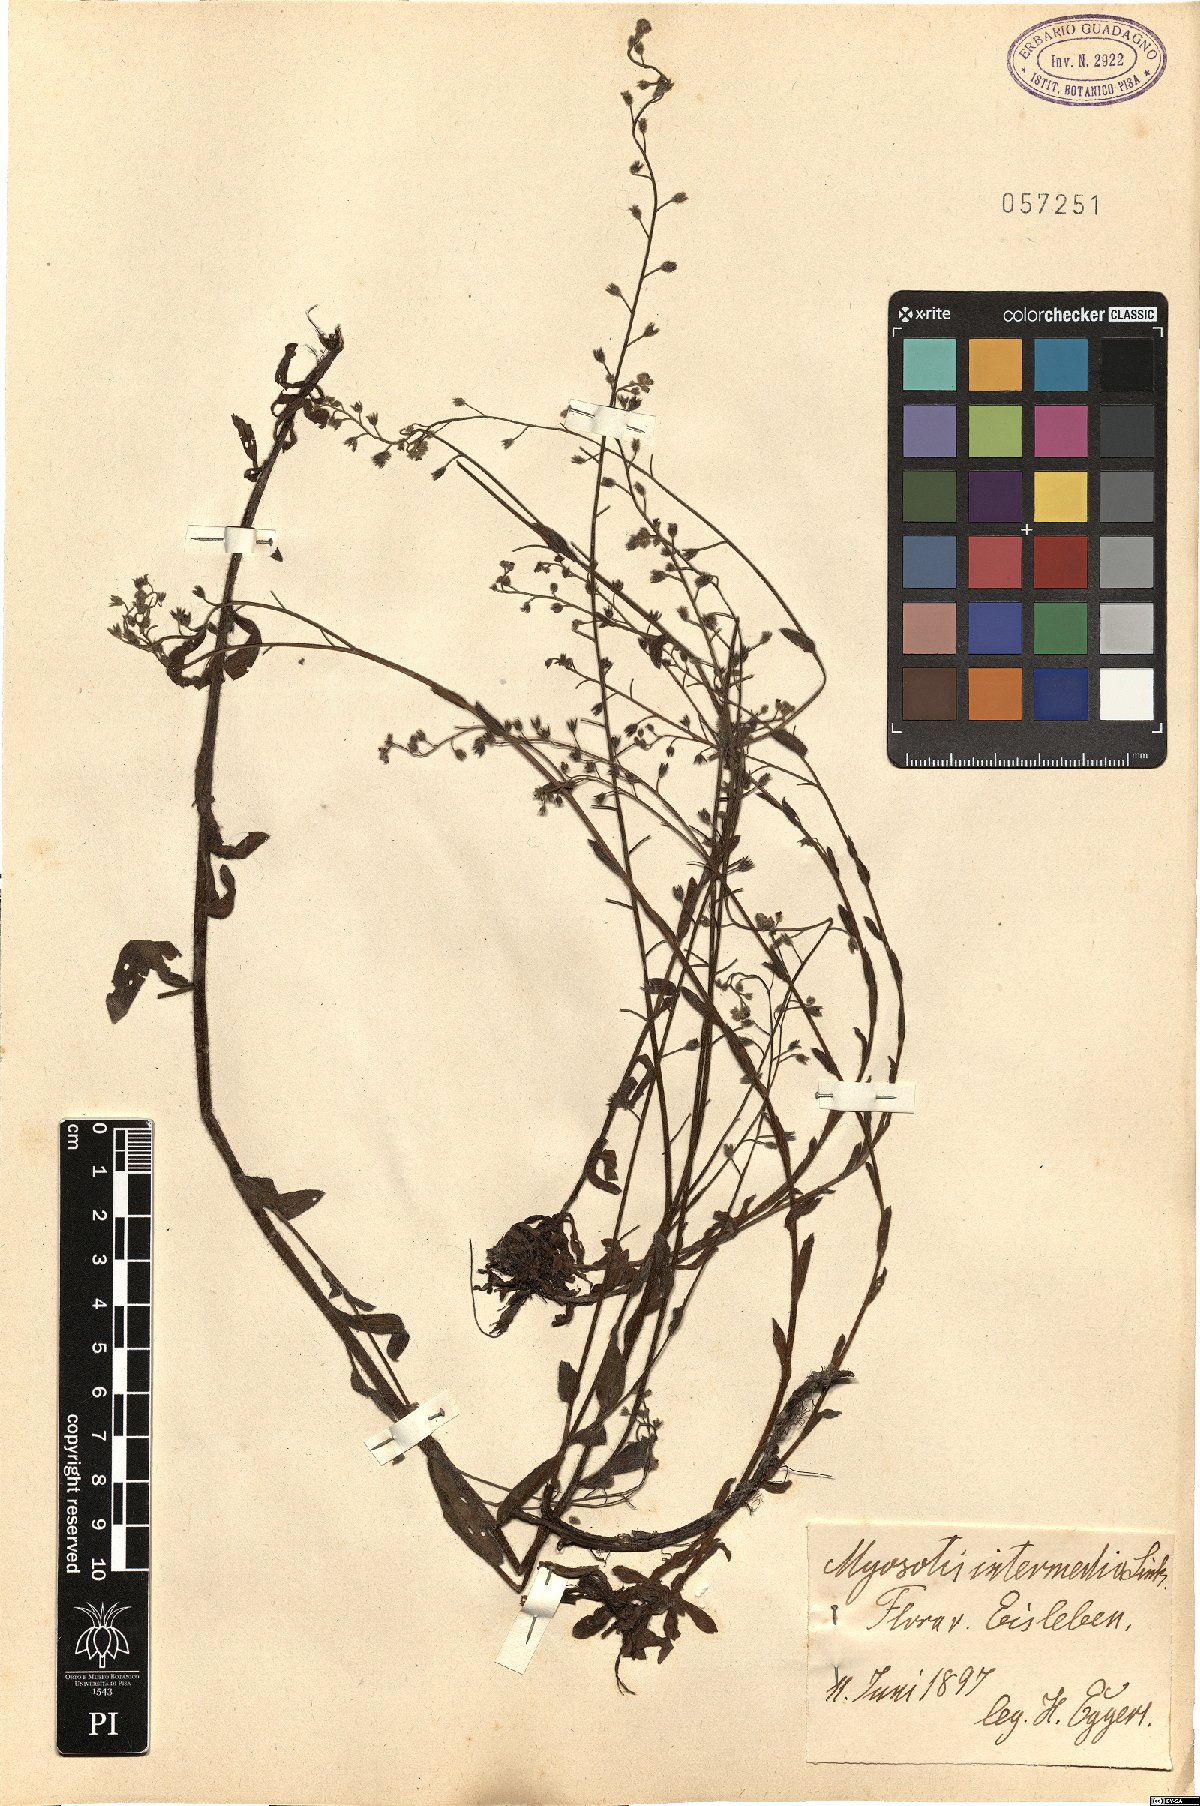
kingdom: Plantae
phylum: Tracheophyta
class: Magnoliopsida
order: Boraginales
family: Boraginaceae
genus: Myosotis
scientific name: Myosotis arvensis
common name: Field forget-me-not
